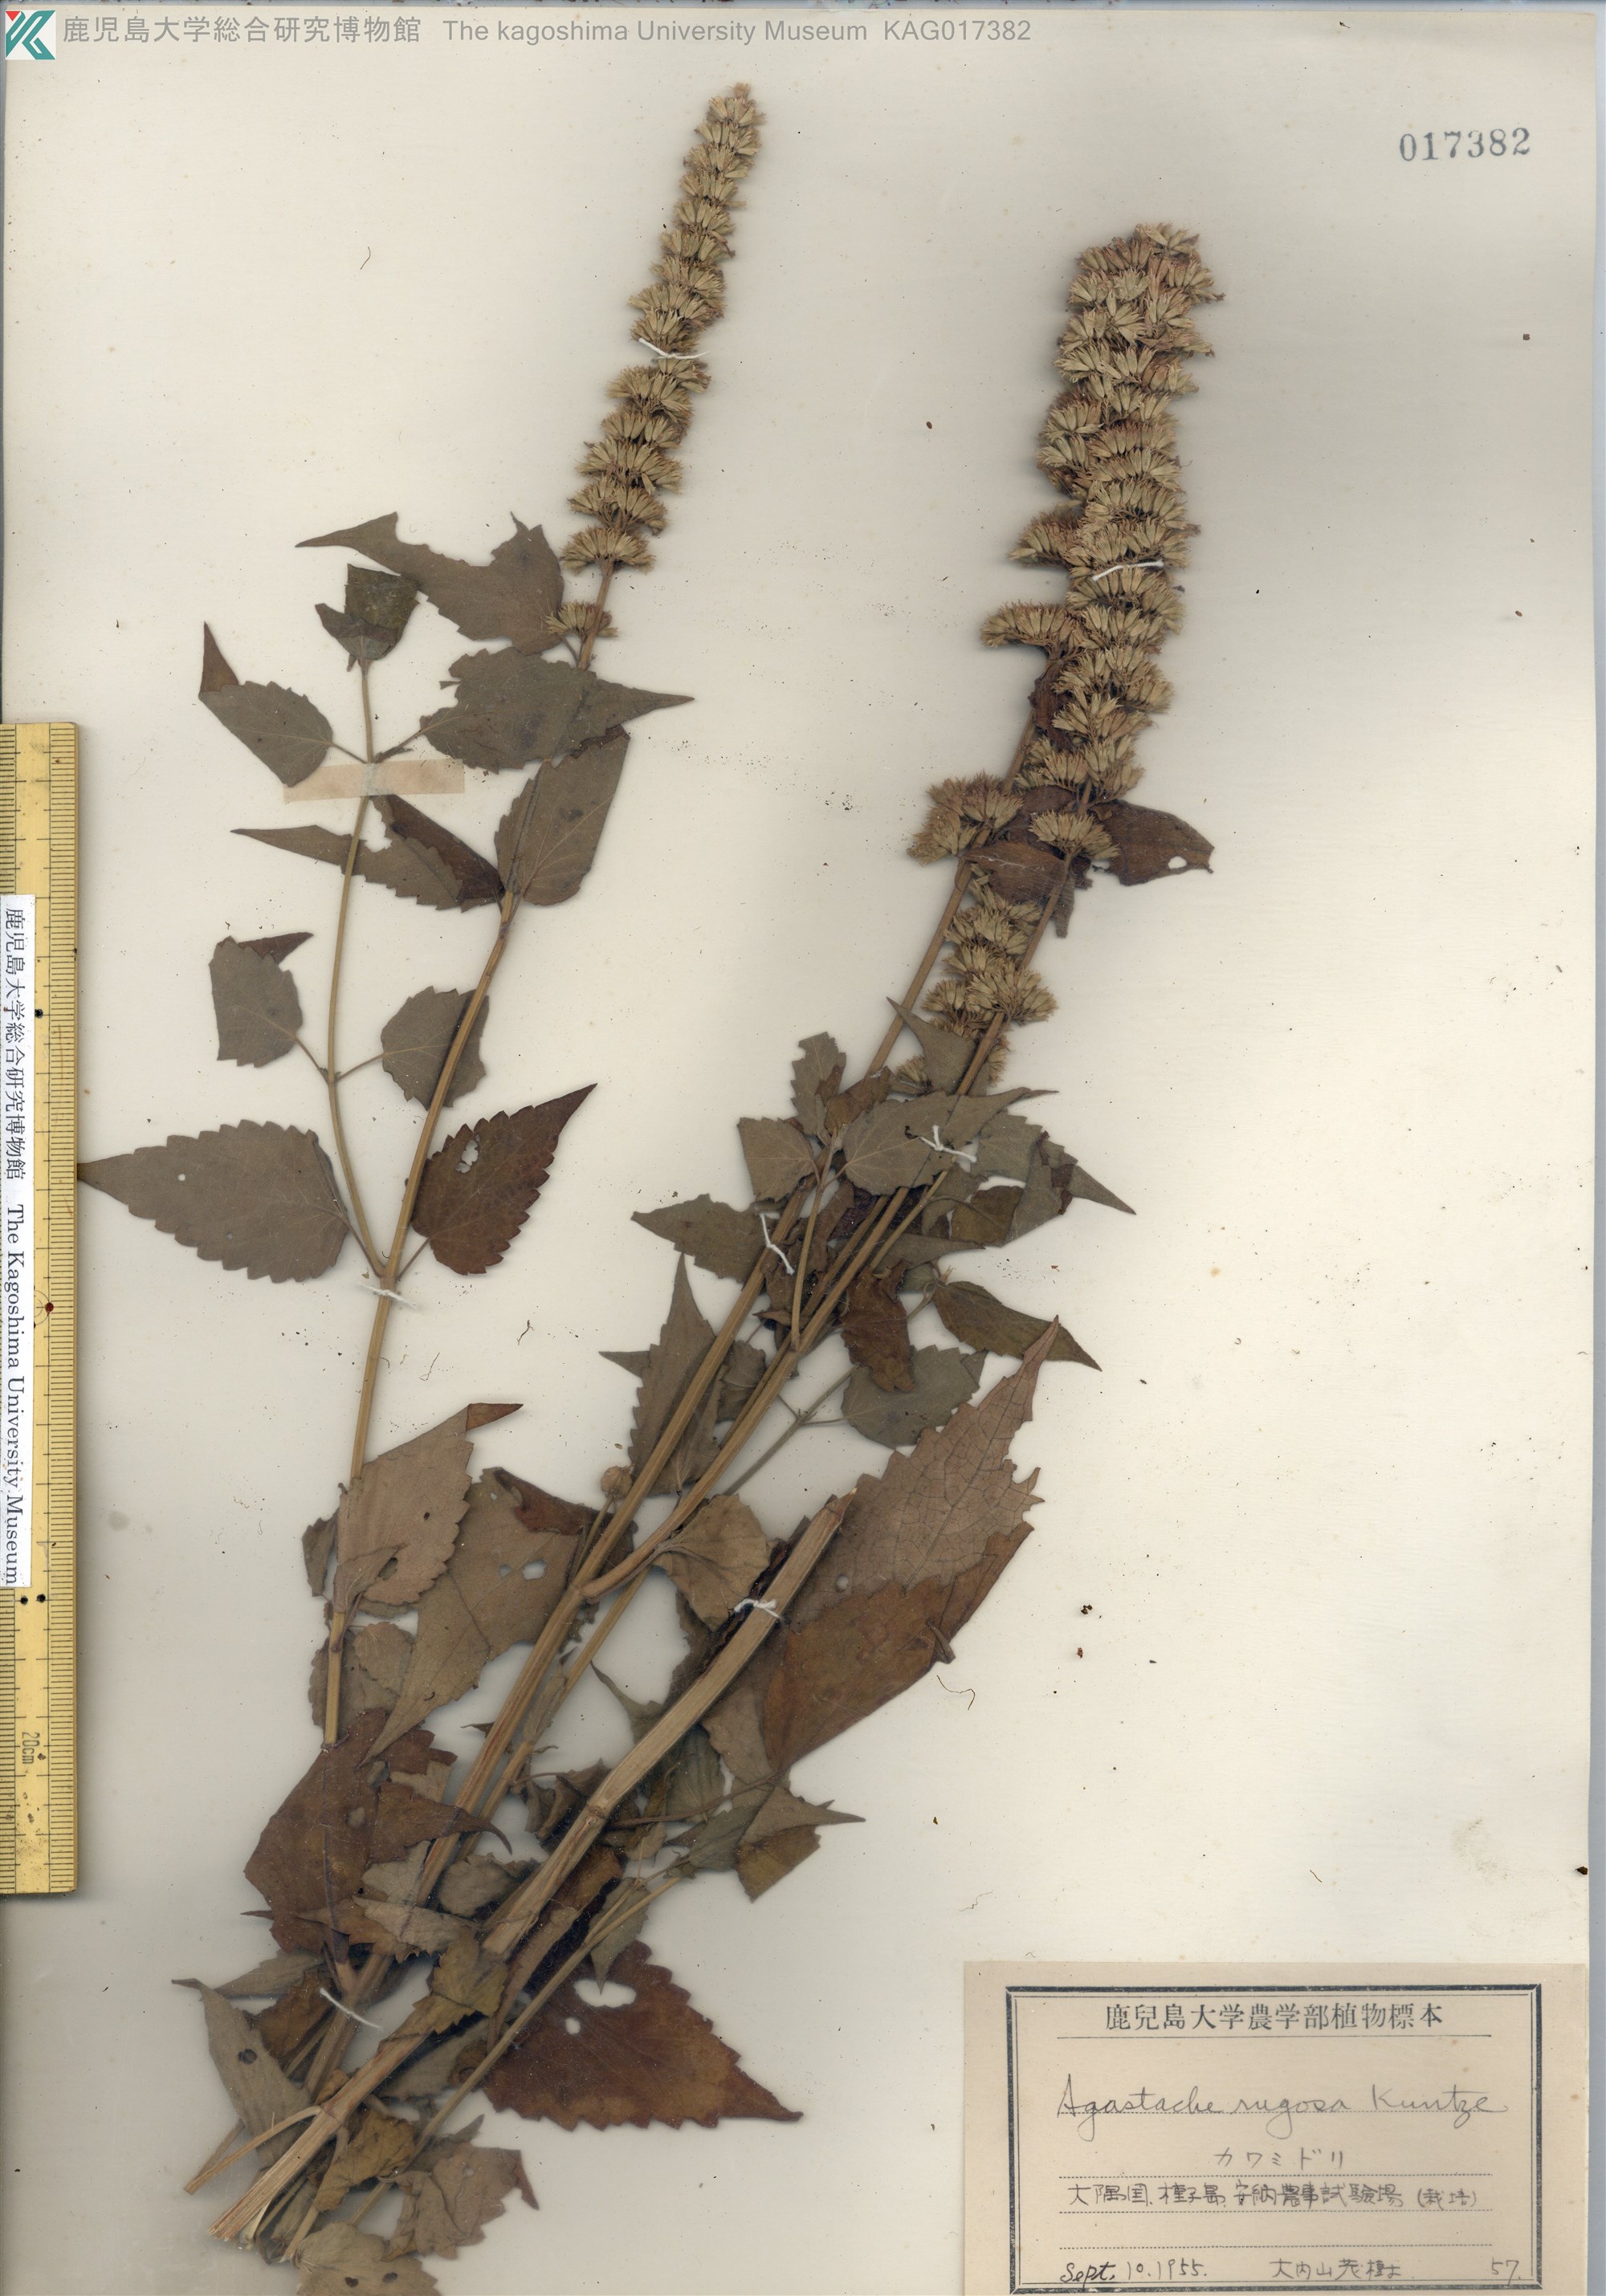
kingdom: Plantae
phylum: Tracheophyta
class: Magnoliopsida
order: Lamiales
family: Lamiaceae
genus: Agastache
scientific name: Agastache rugosa
